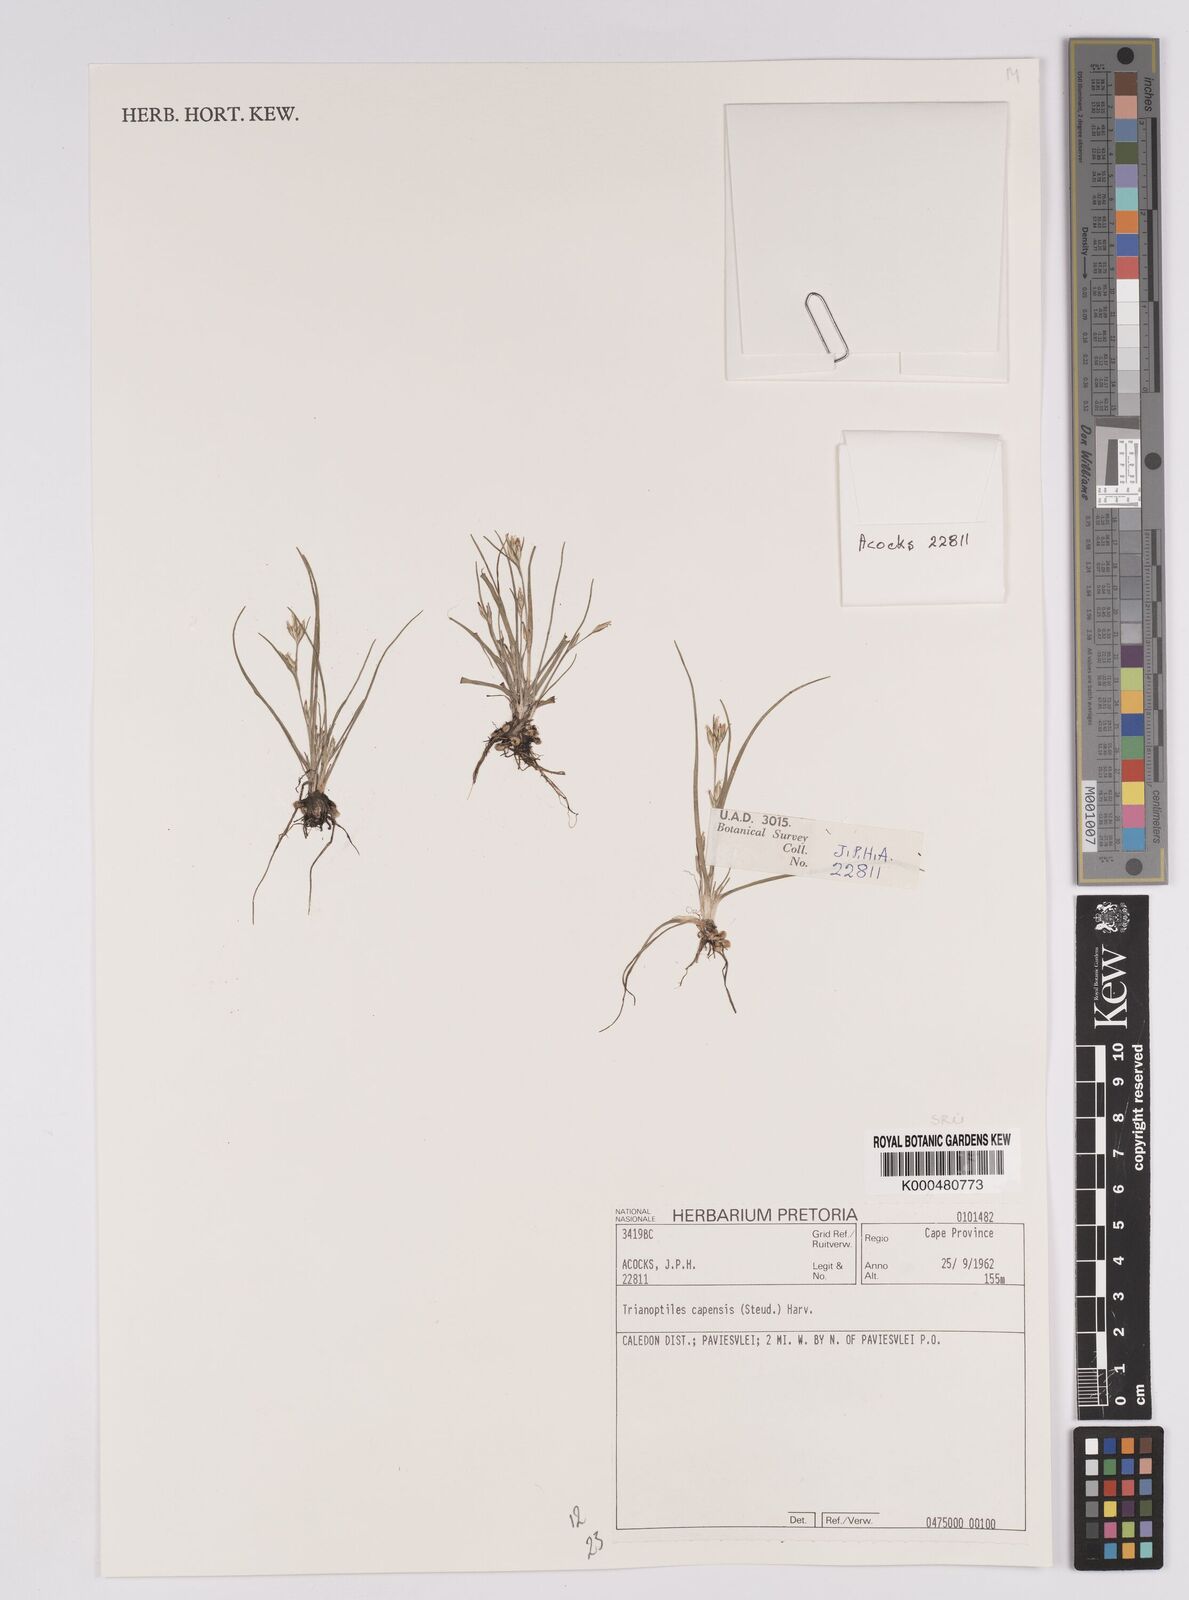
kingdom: Plantae
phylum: Tracheophyta
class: Liliopsida
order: Poales
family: Cyperaceae
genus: Trianoptiles
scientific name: Trianoptiles capensis
